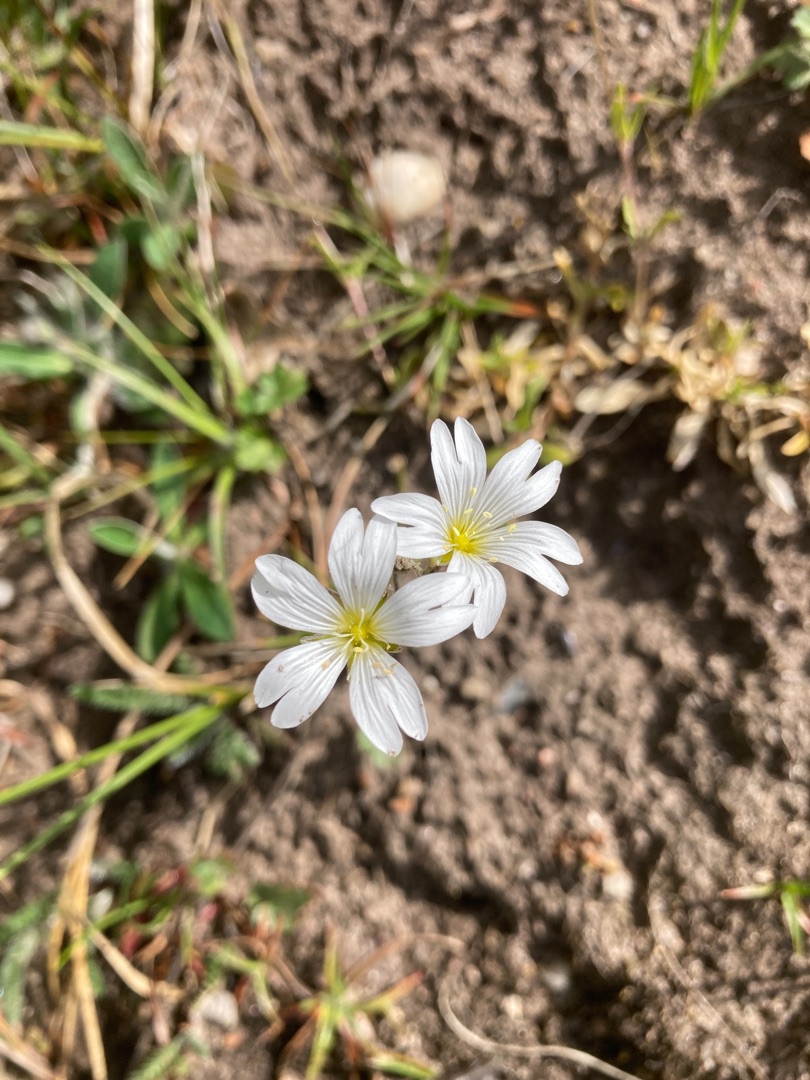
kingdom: Plantae
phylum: Tracheophyta
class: Magnoliopsida
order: Caryophyllales
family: Caryophyllaceae
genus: Cerastium
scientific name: Cerastium arvense
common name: Storblomstret hønsetarm
